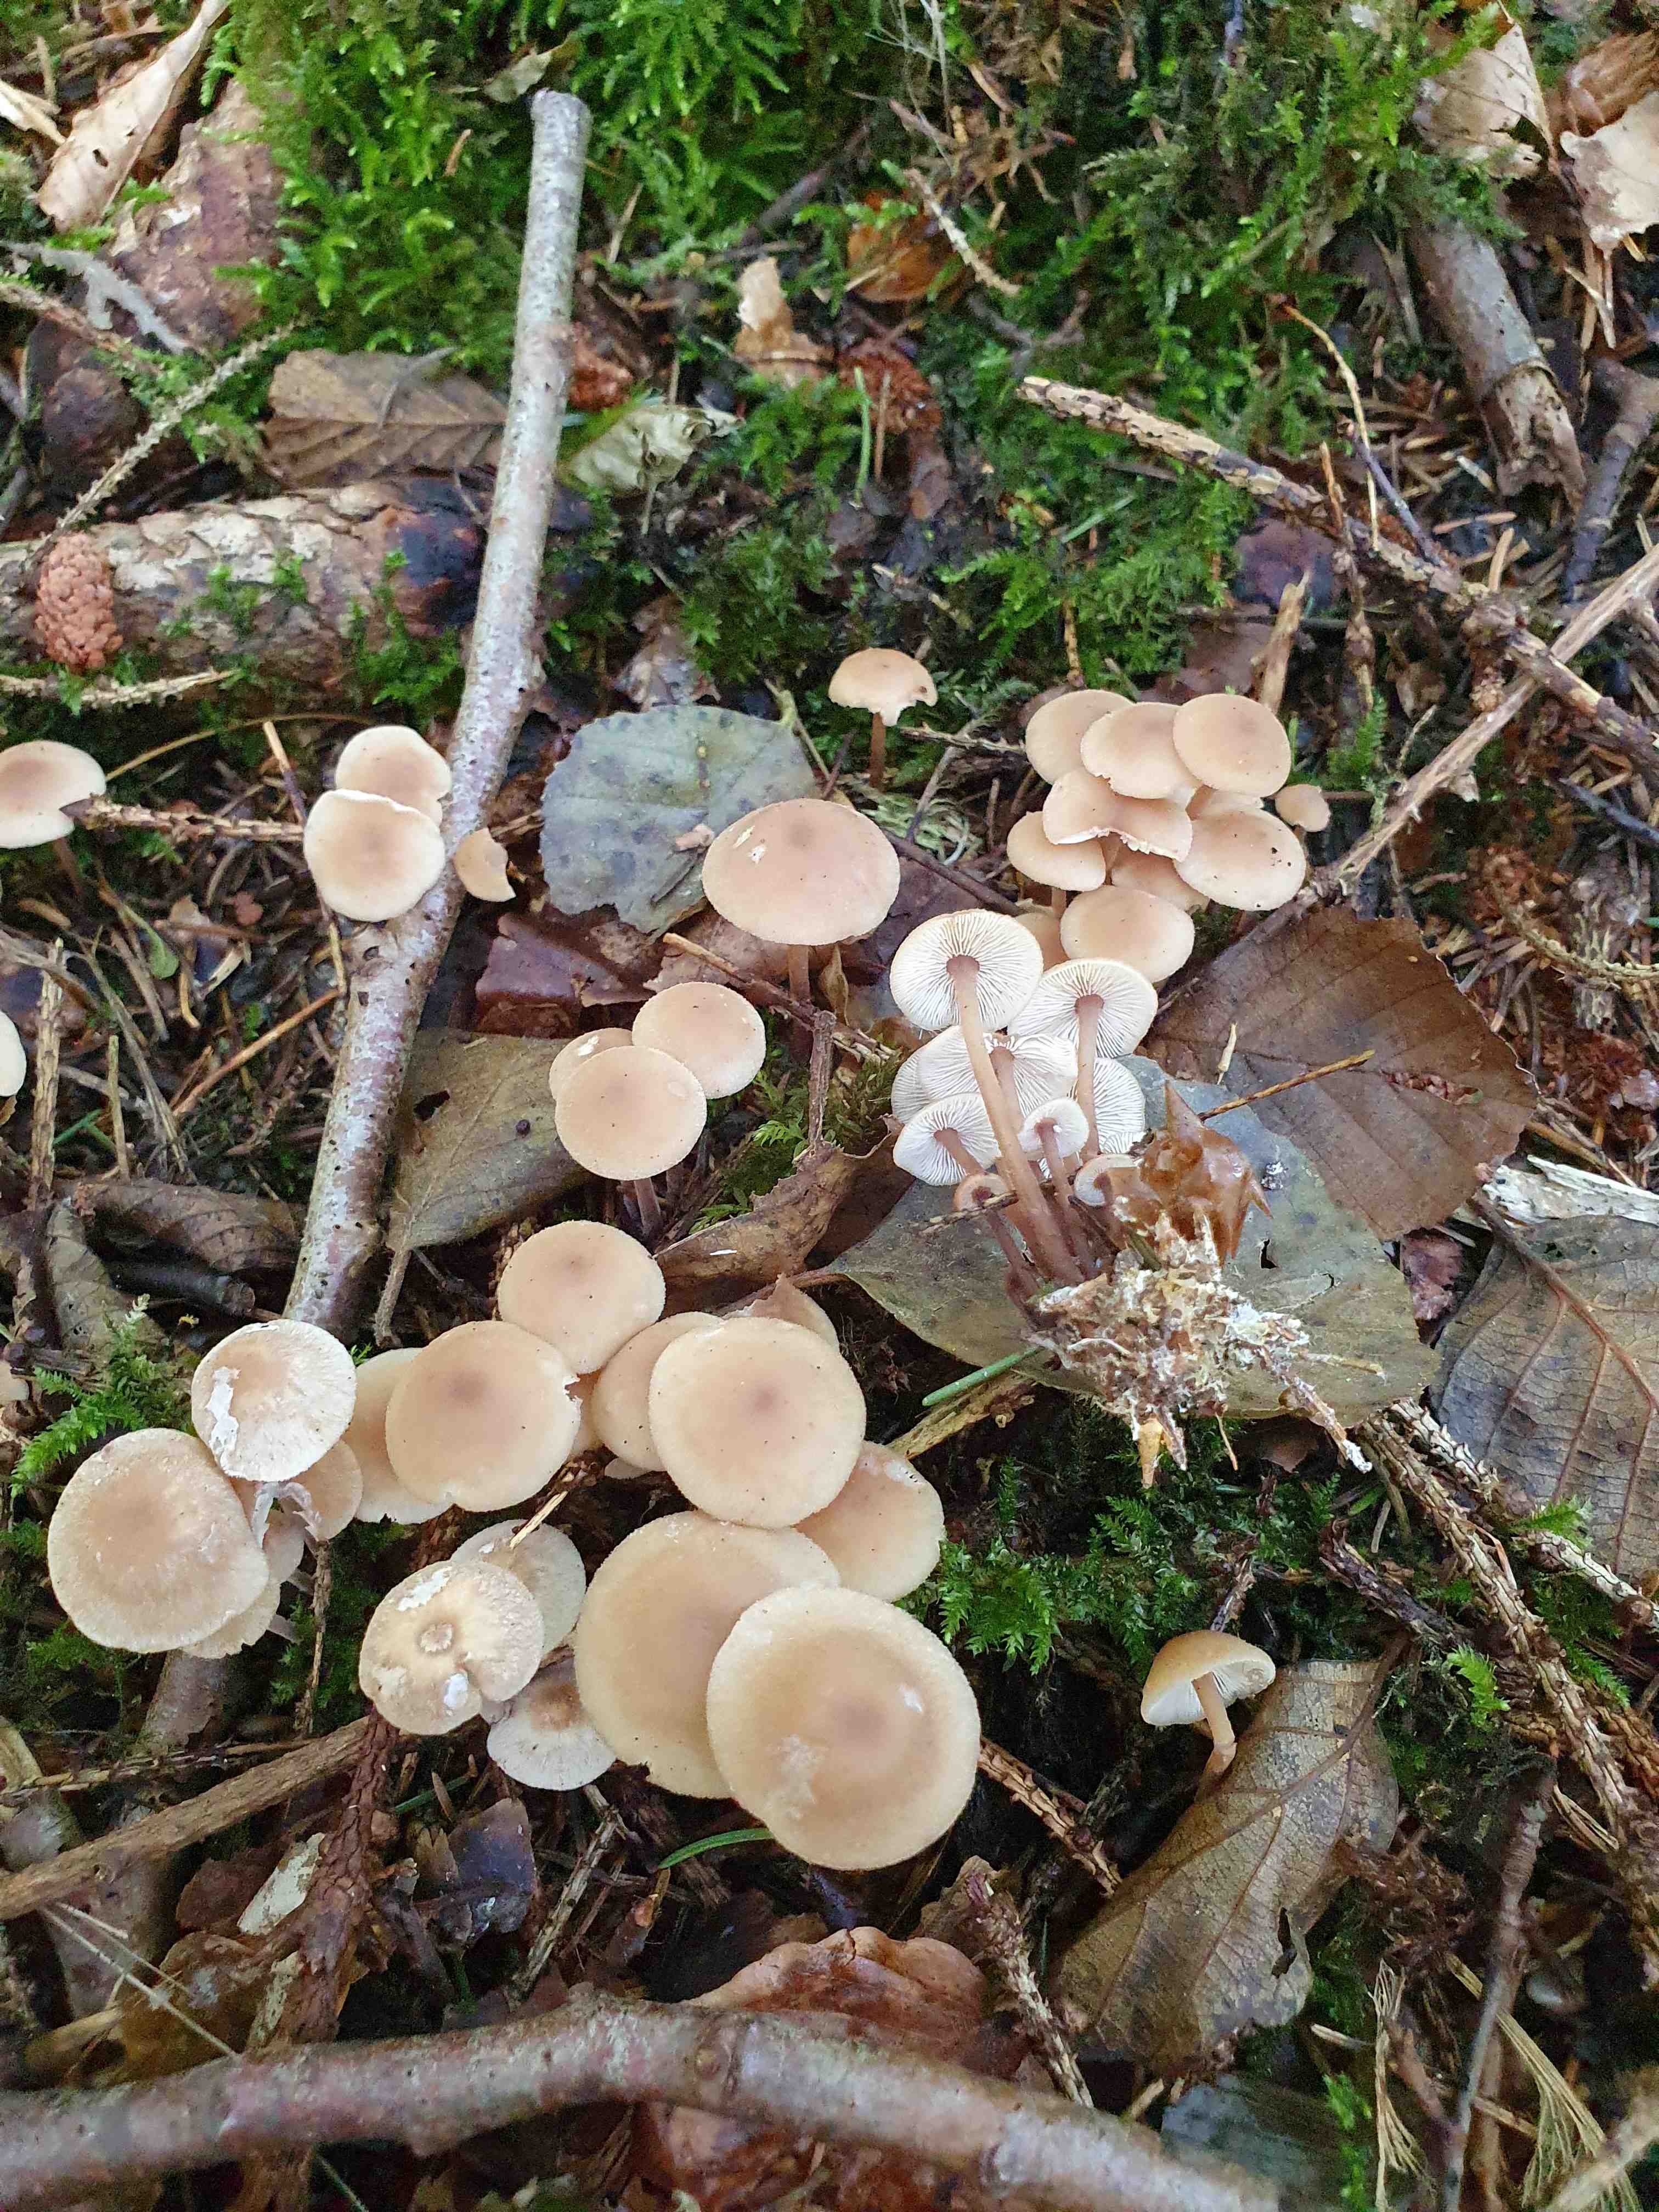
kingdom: Fungi
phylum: Basidiomycota
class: Agaricomycetes
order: Agaricales
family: Omphalotaceae
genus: Collybiopsis
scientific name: Collybiopsis confluens
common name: knippe-fladhat
